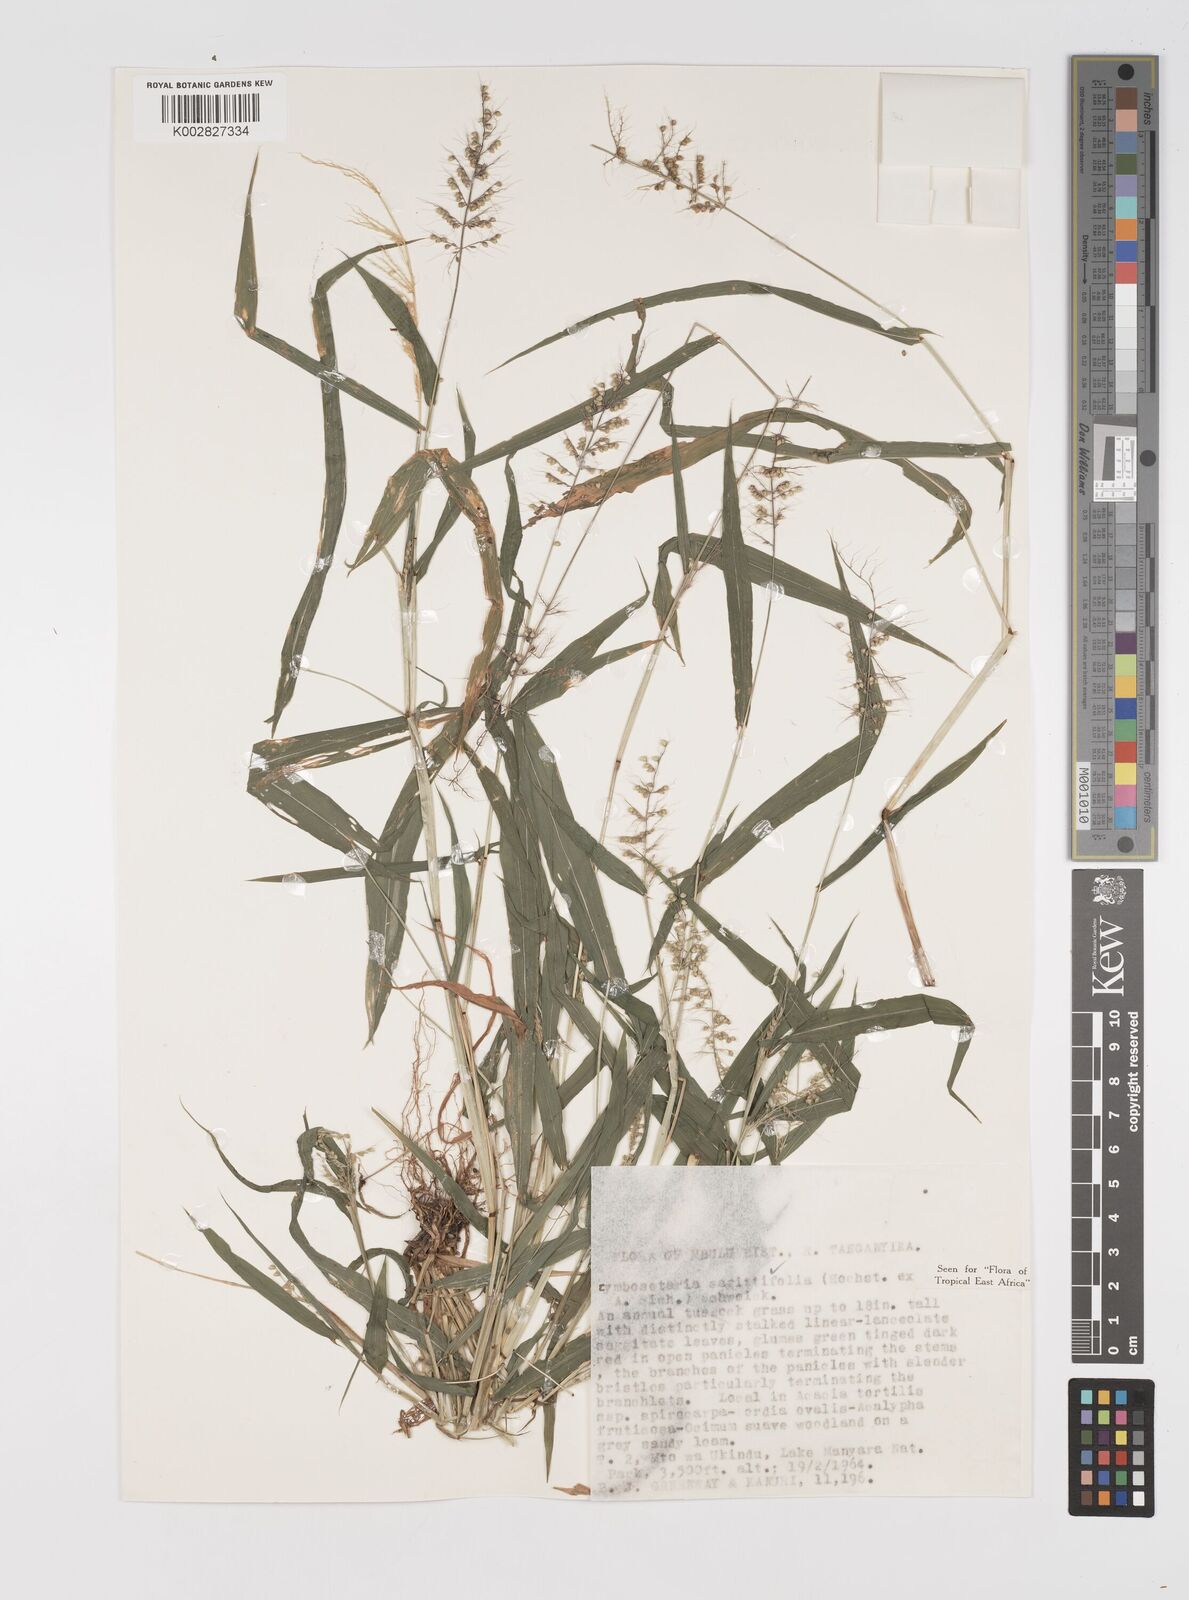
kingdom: Plantae
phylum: Tracheophyta
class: Liliopsida
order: Poales
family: Poaceae
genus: Setaria
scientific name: Setaria sagittifolia
